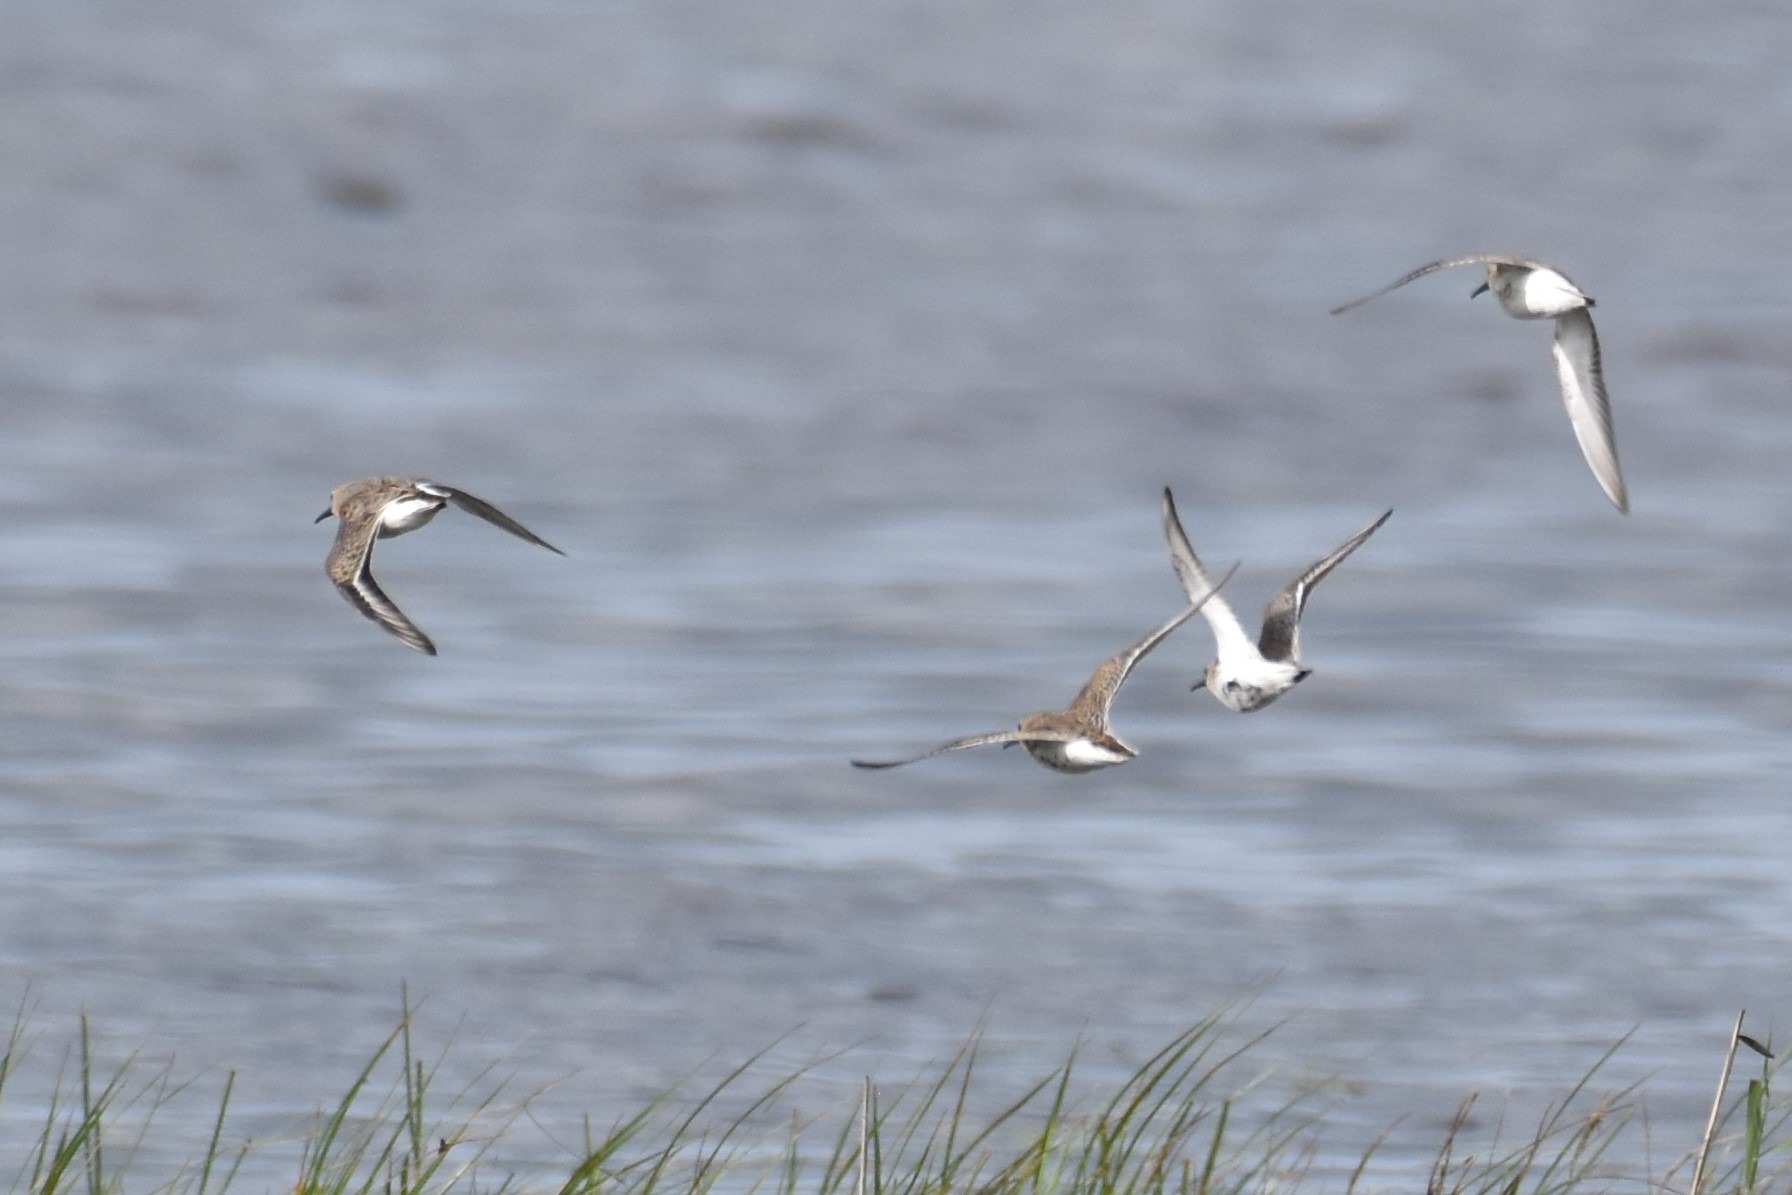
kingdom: Animalia
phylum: Chordata
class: Aves
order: Charadriiformes
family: Scolopacidae
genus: Calidris
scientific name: Calidris alpina
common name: Almindelig ryle
